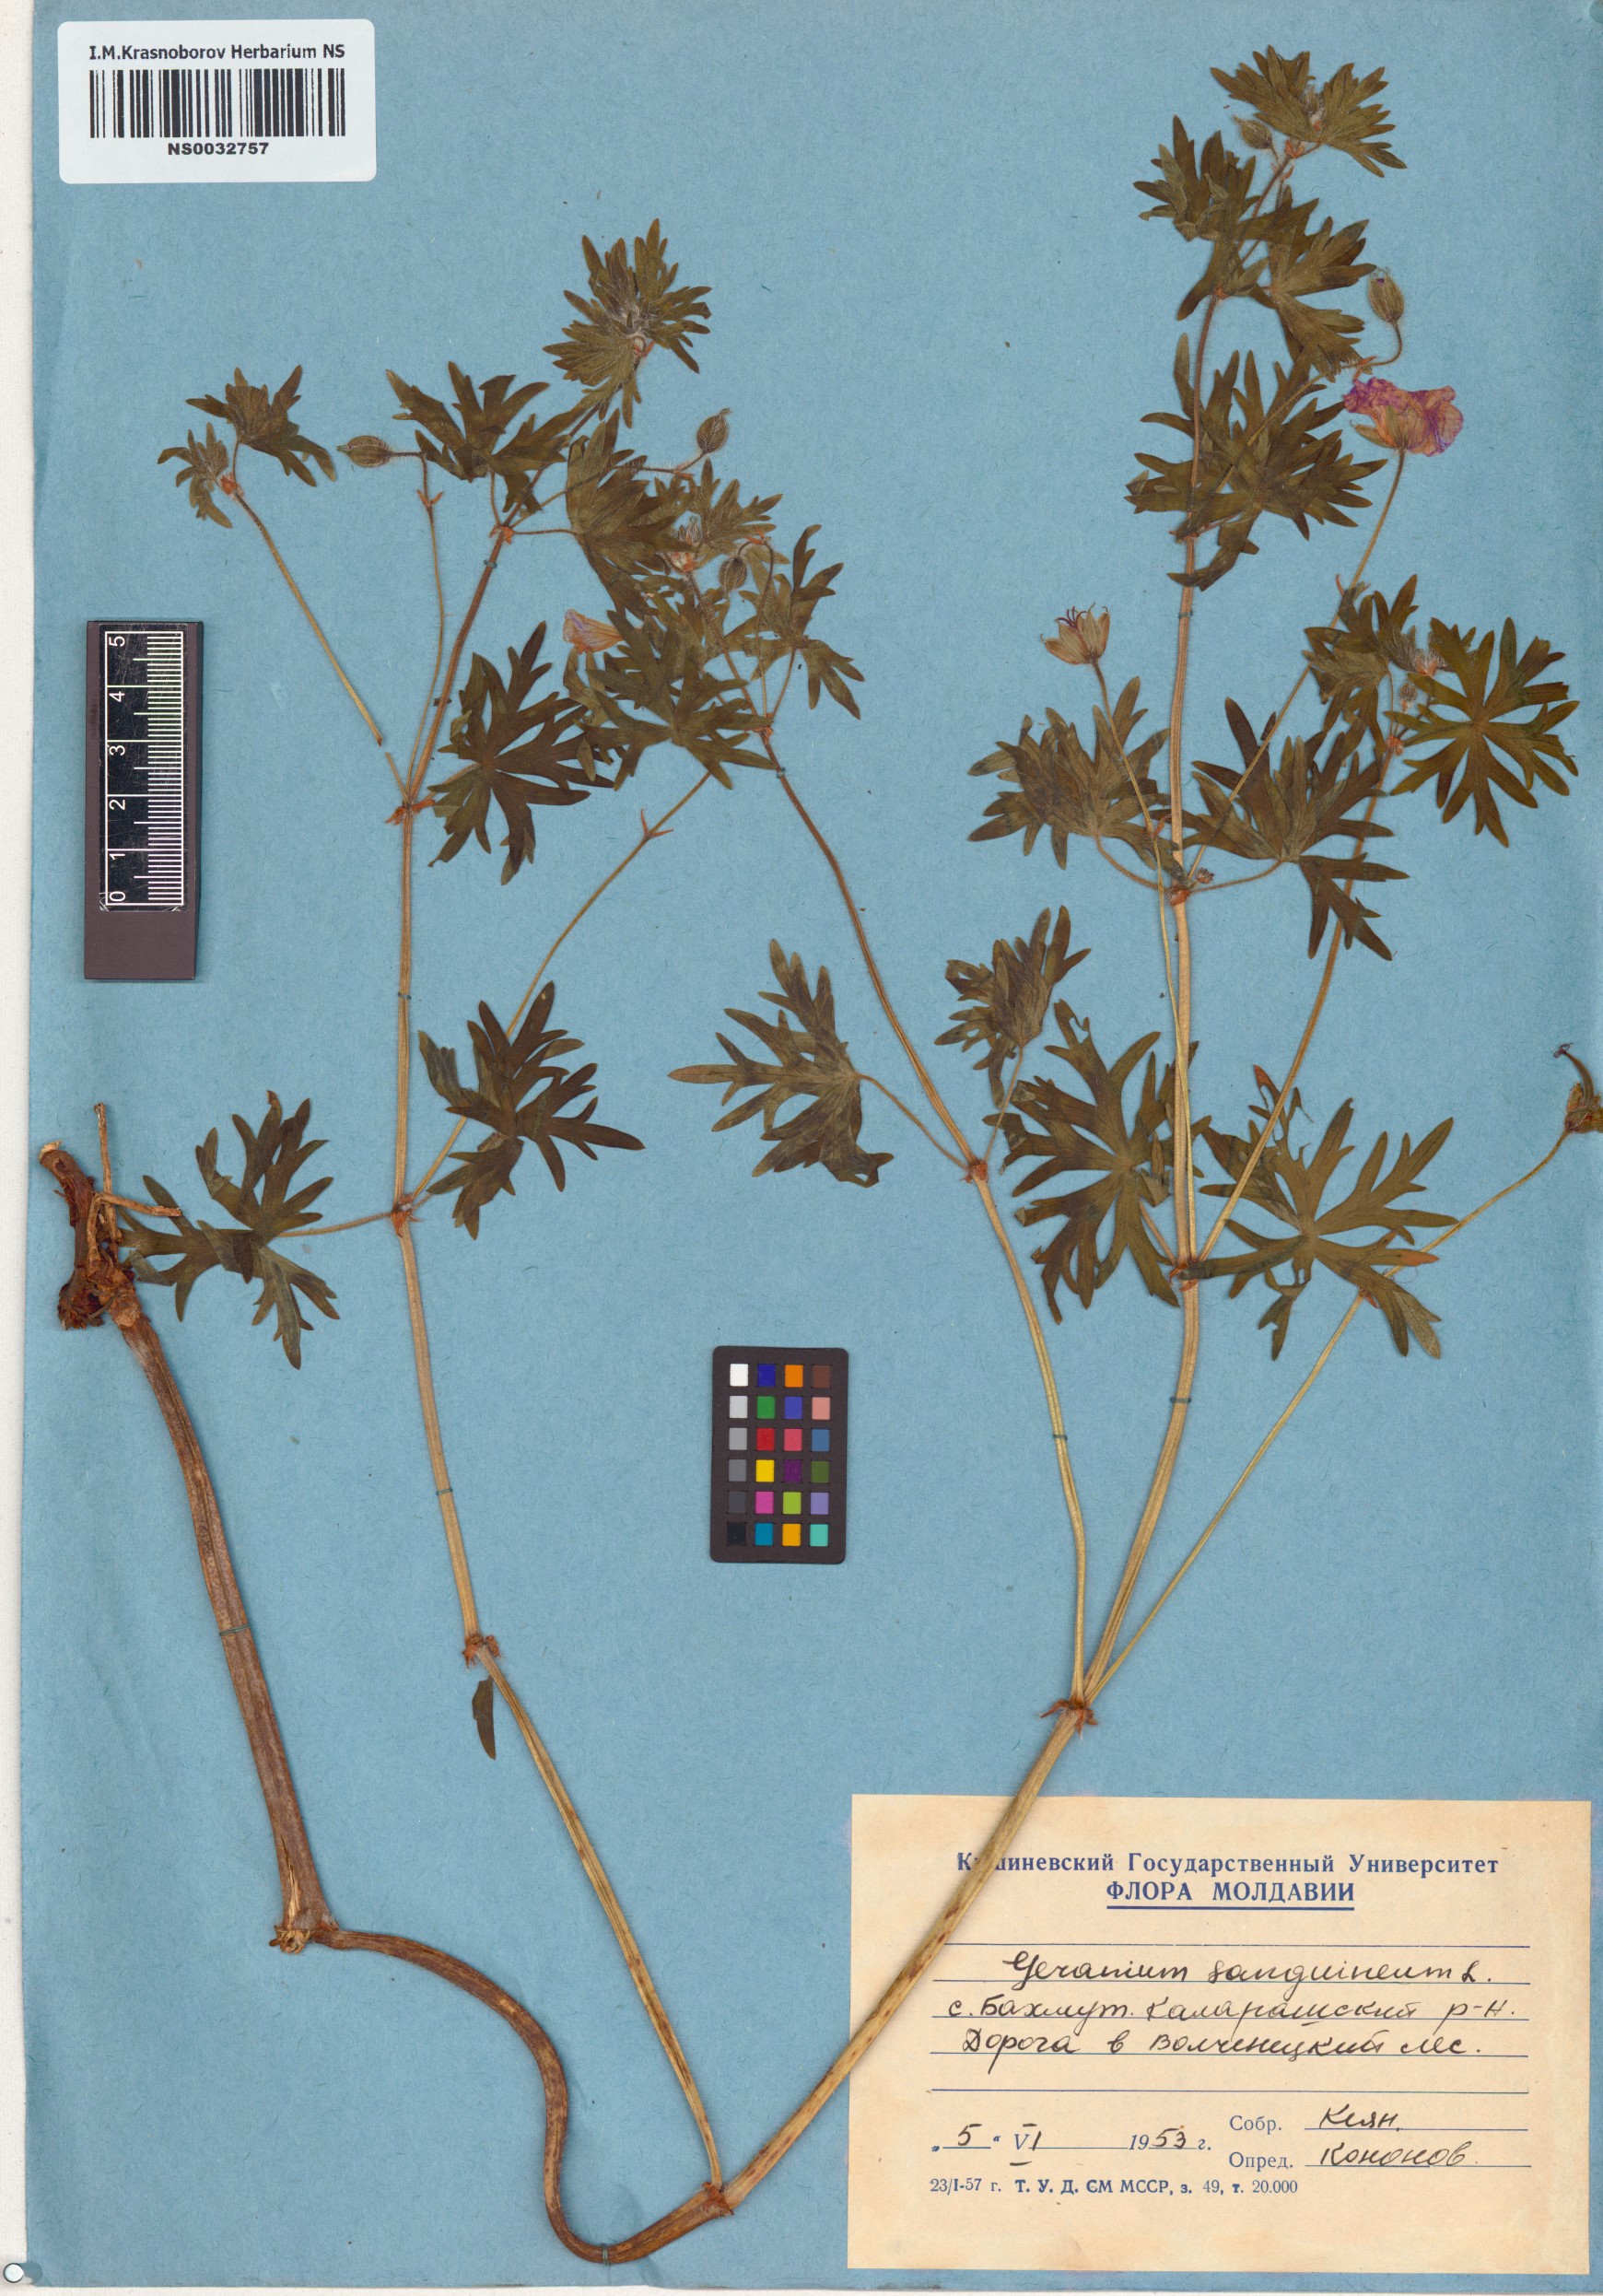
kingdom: Plantae
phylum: Tracheophyta
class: Magnoliopsida
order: Geraniales
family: Geraniaceae
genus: Geranium
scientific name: Geranium sanguineum
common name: Bloody crane's-bill
